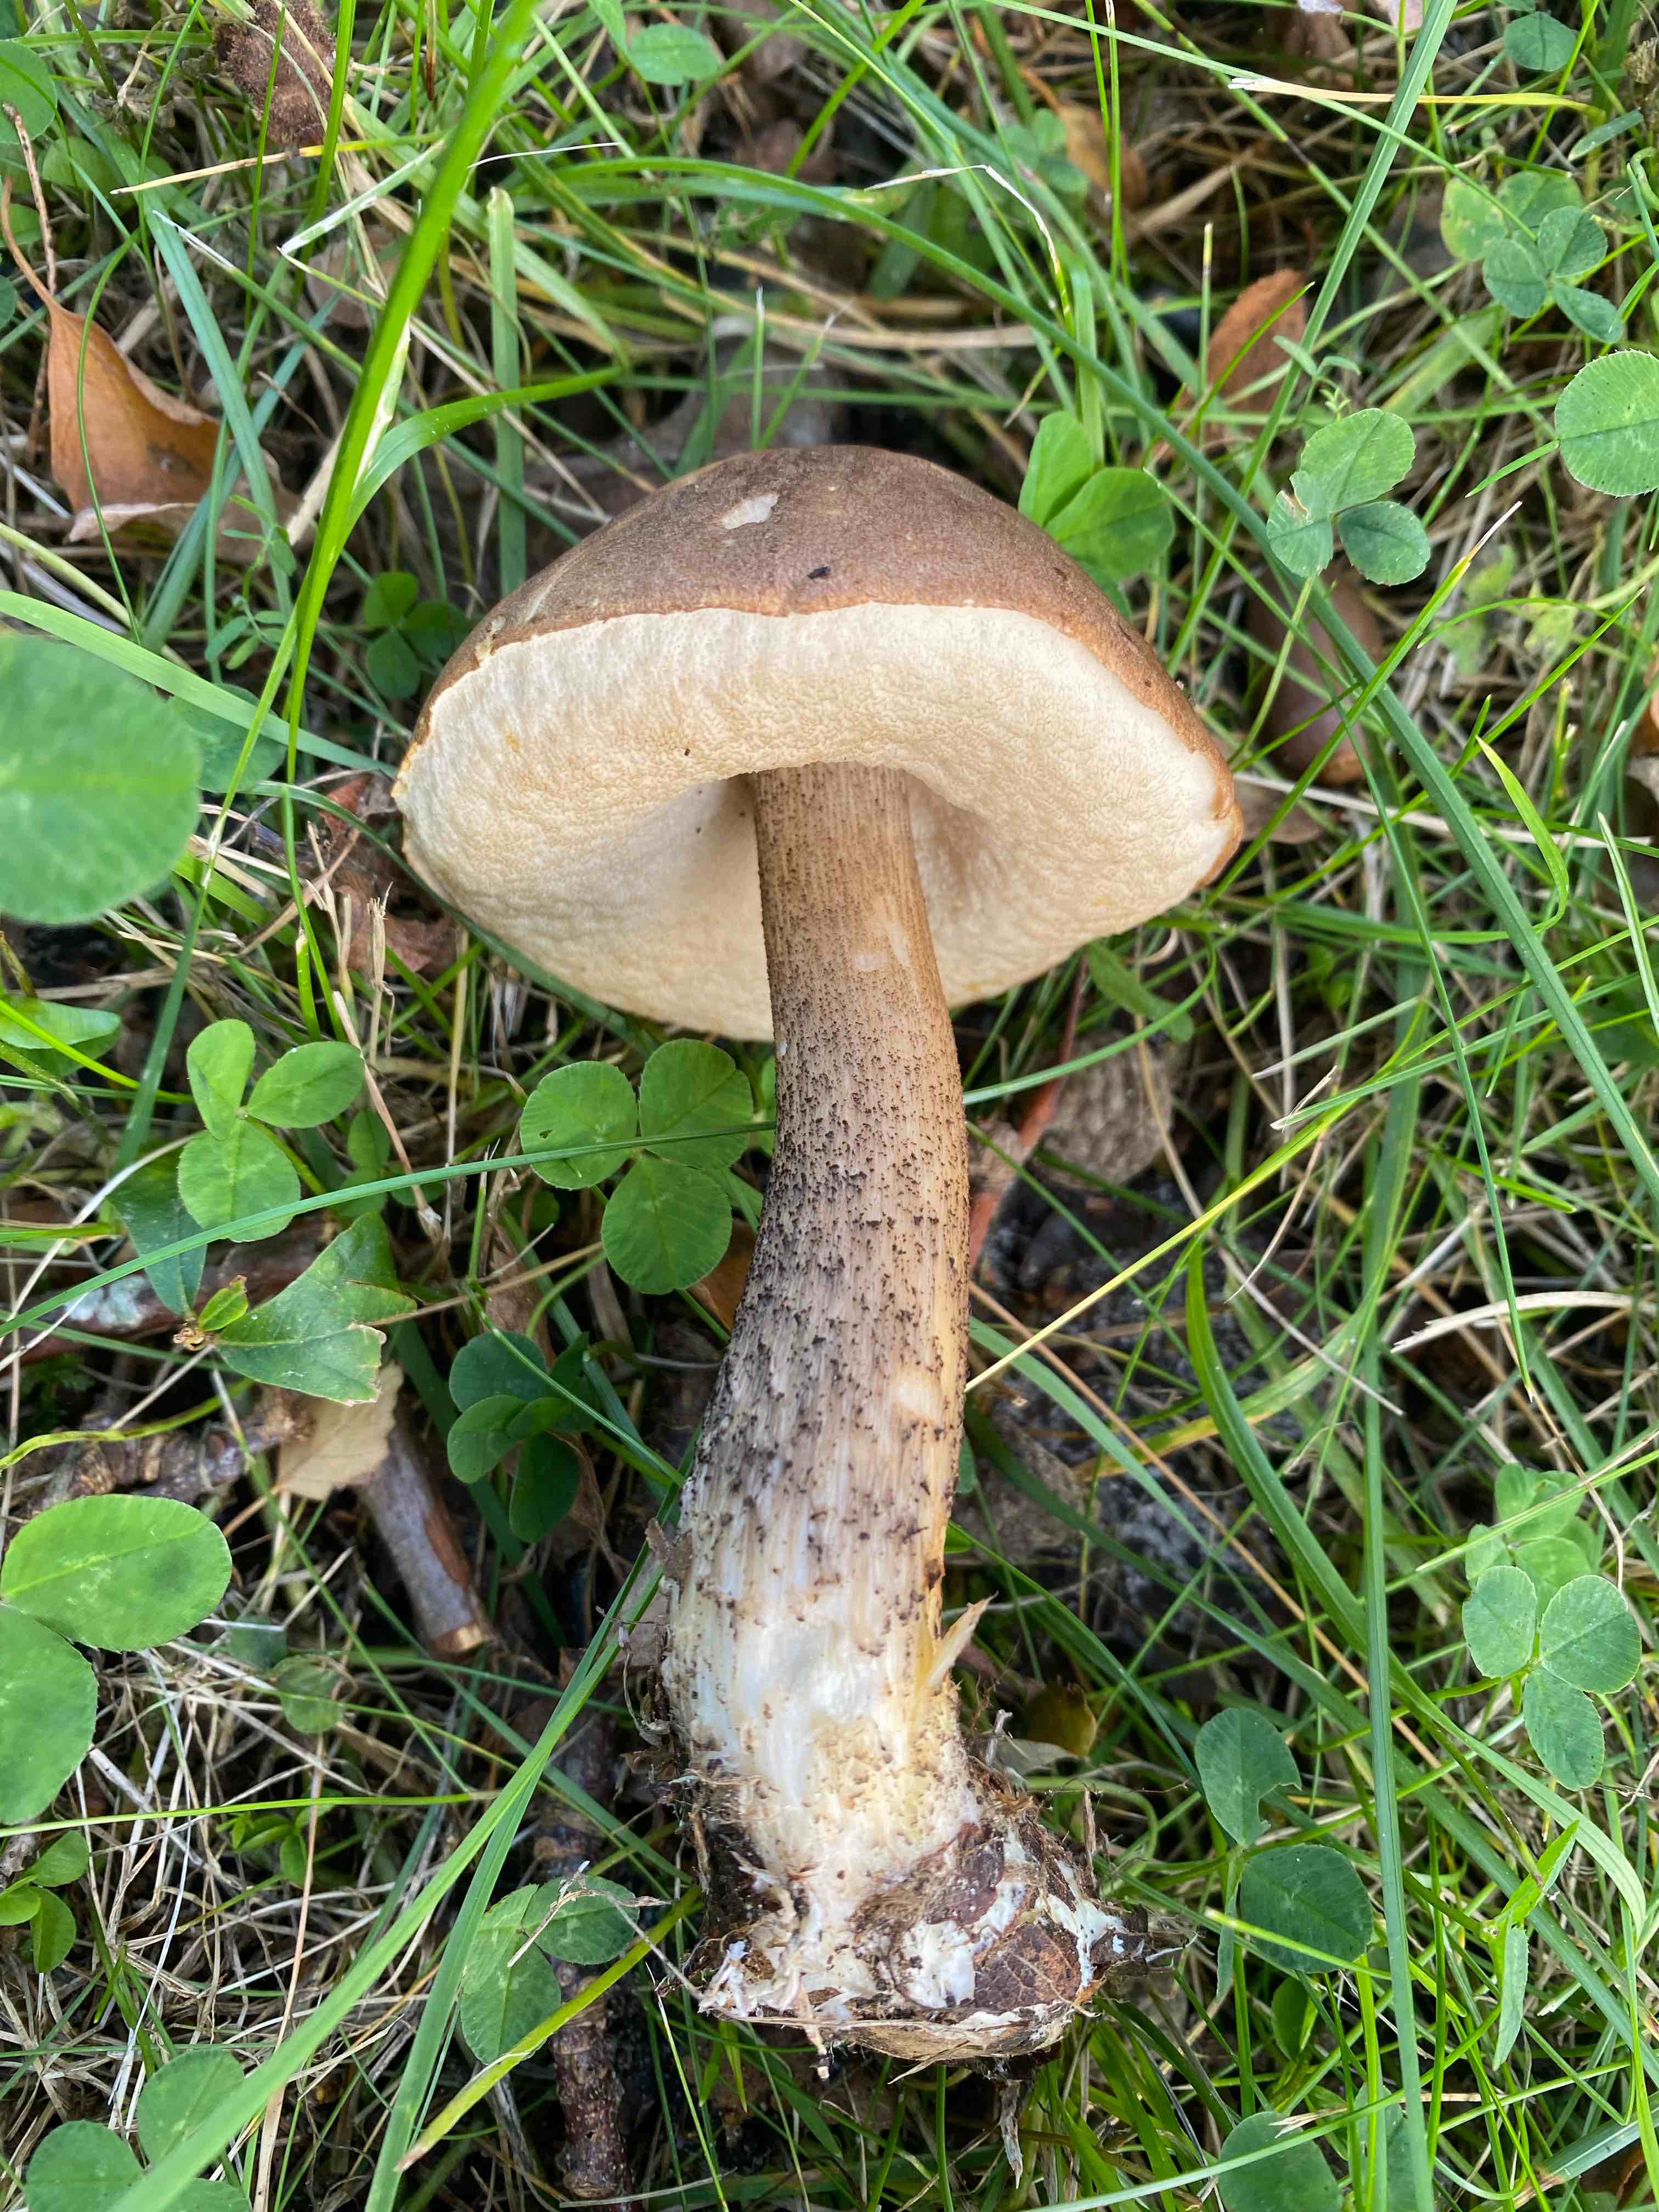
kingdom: Fungi
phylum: Basidiomycota
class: Agaricomycetes
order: Boletales
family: Boletaceae
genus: Imleria
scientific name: Imleria badia
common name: brunstokket rørhat
